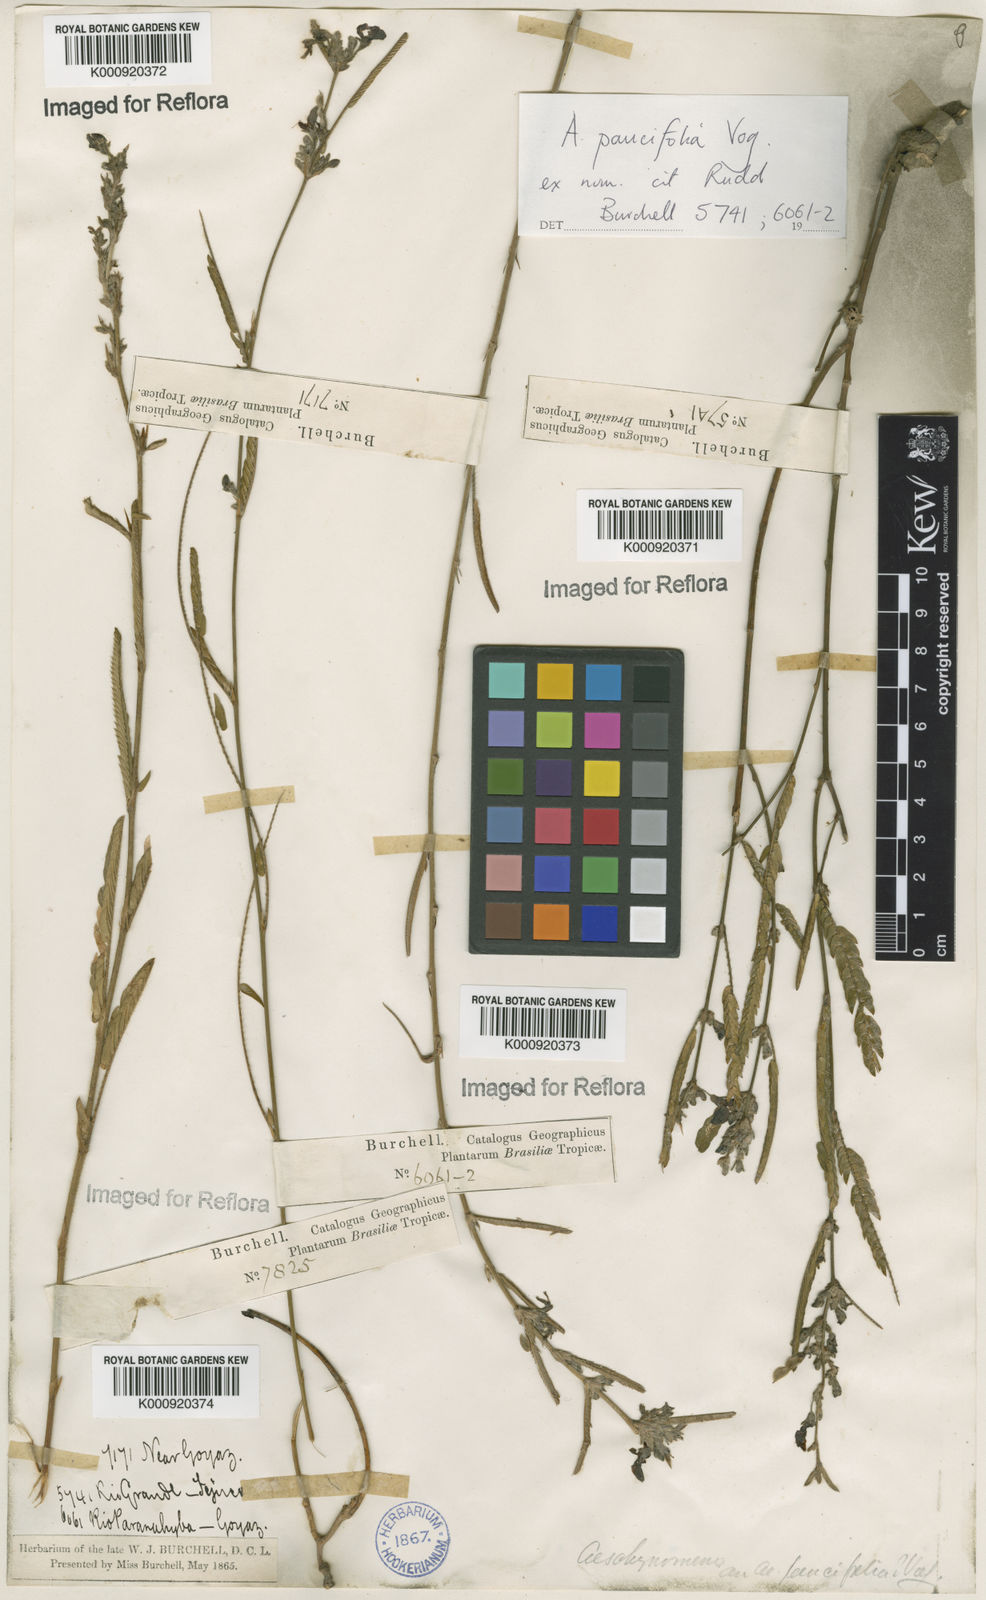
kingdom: Plantae
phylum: Tracheophyta
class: Magnoliopsida
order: Fabales
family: Fabaceae
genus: Ctenodon
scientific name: Ctenodon paucifolius
